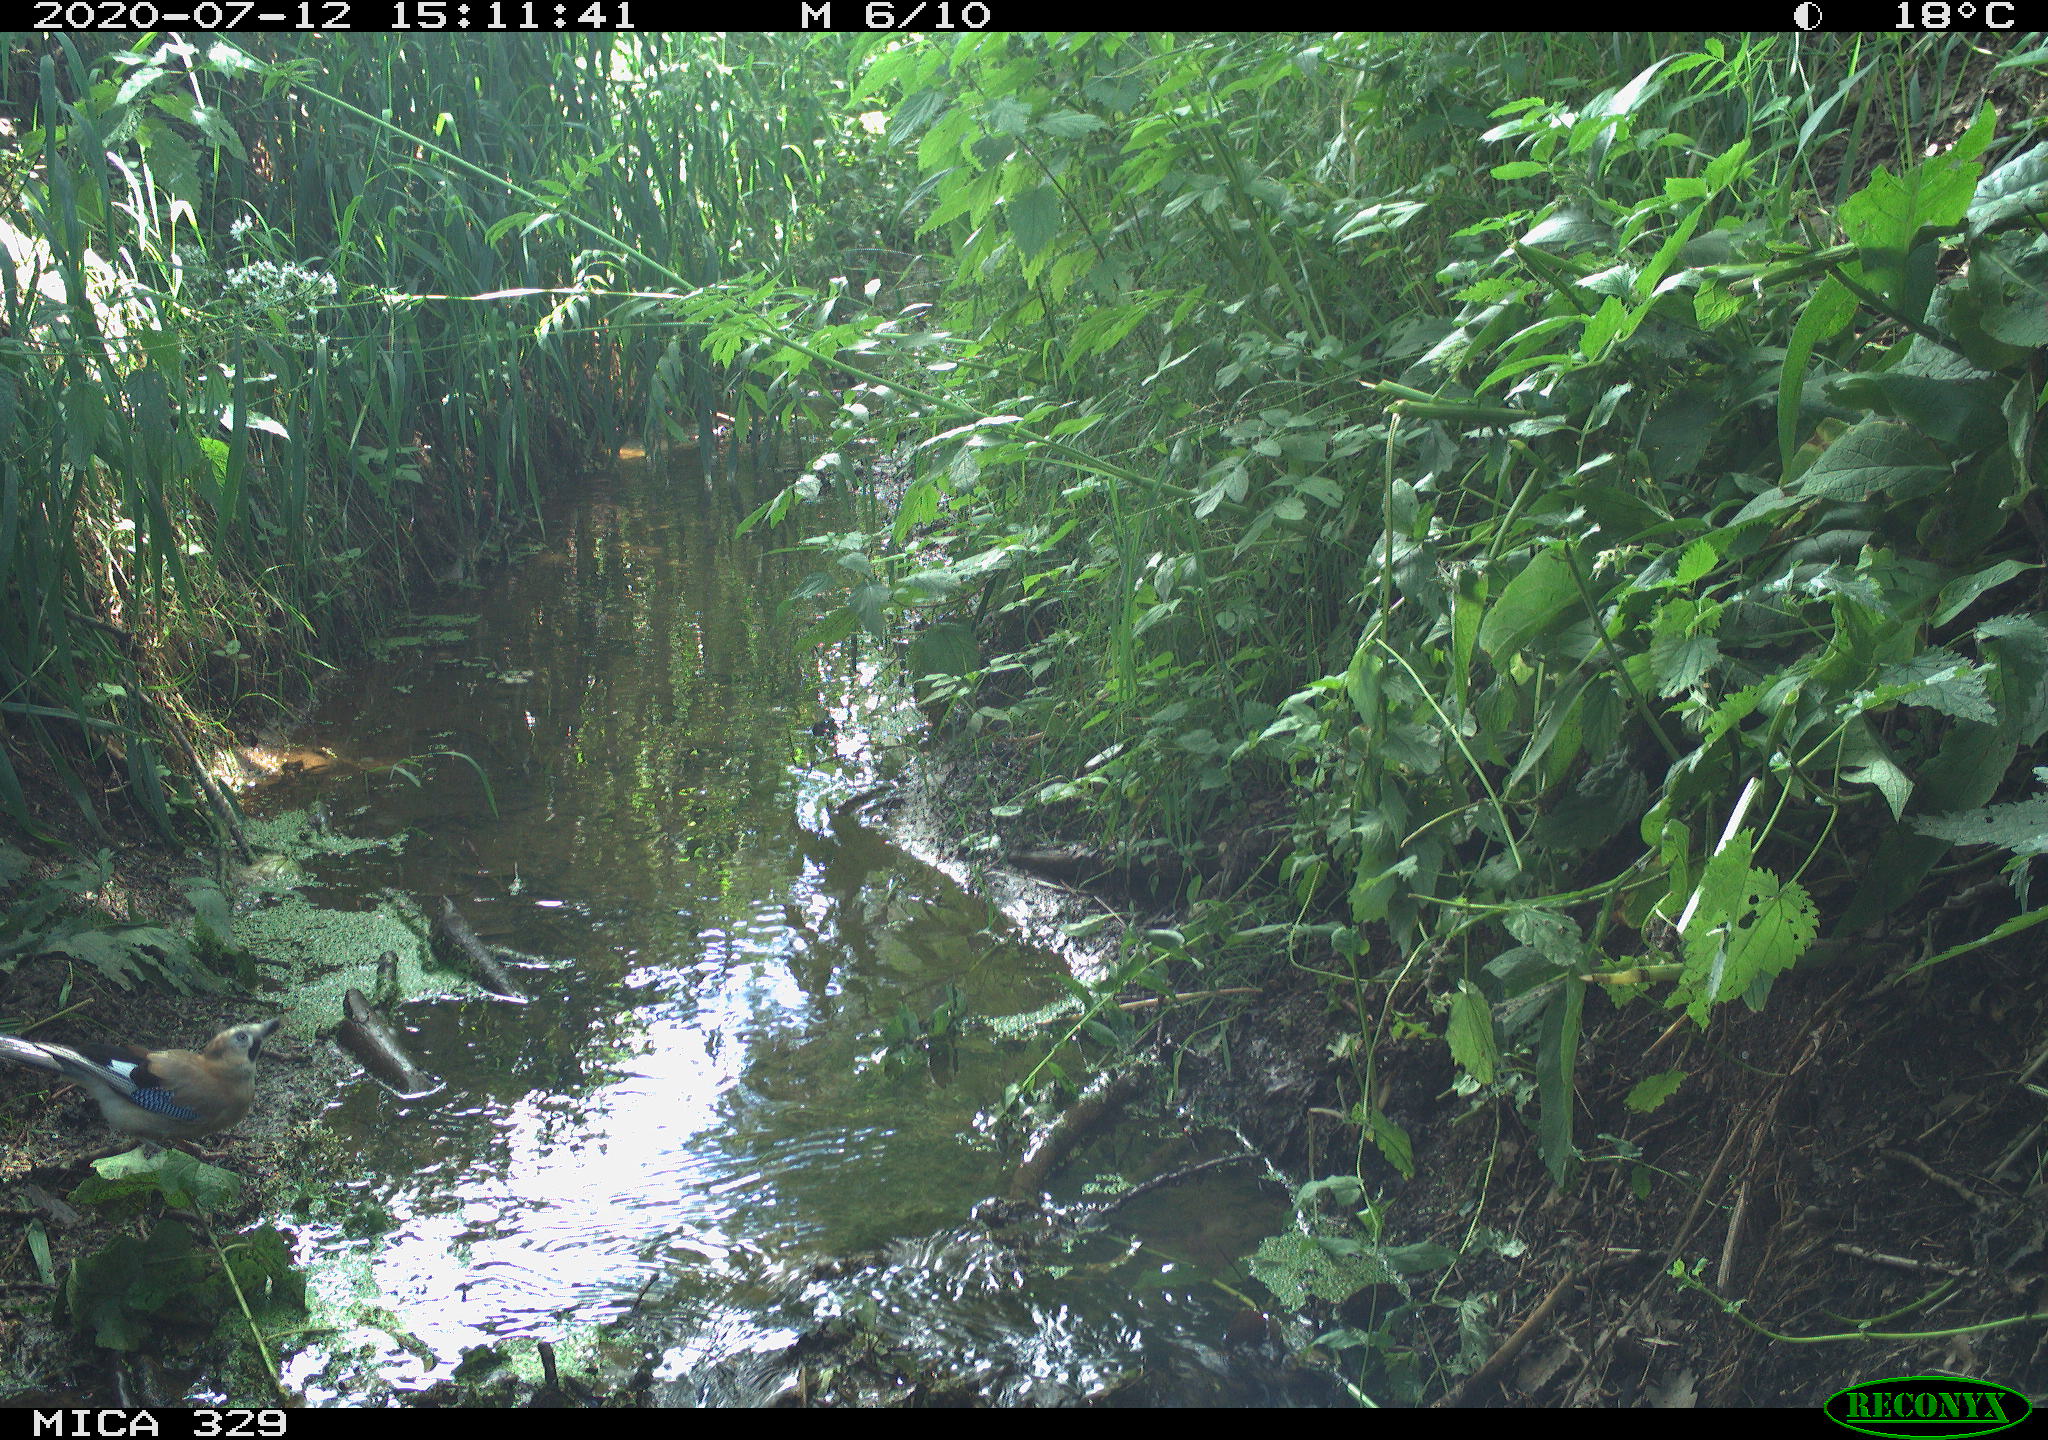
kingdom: Animalia
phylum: Chordata
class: Aves
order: Passeriformes
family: Corvidae
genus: Garrulus
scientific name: Garrulus glandarius
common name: Eurasian jay
